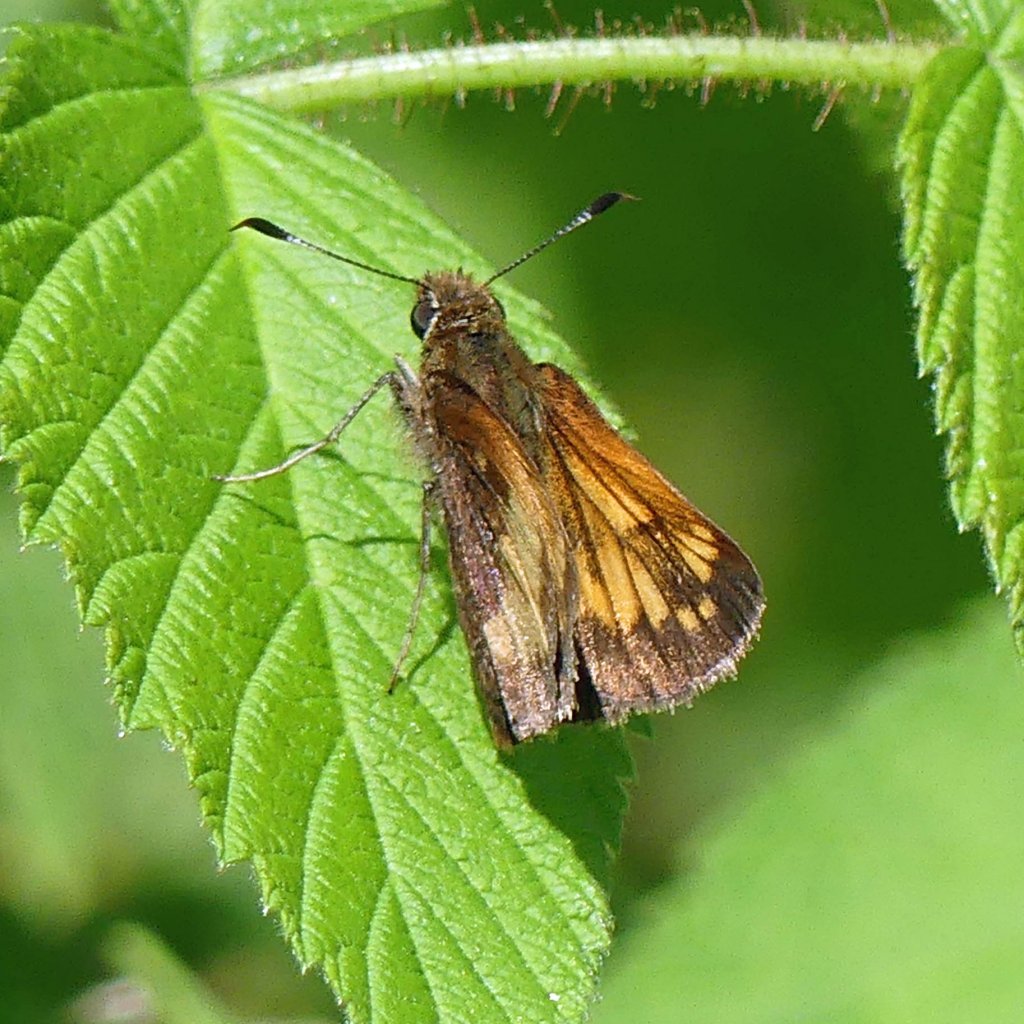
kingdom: Animalia
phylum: Arthropoda
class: Insecta
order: Lepidoptera
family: Hesperiidae
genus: Lon
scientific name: Lon hobomok
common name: Hobomok Skipper
